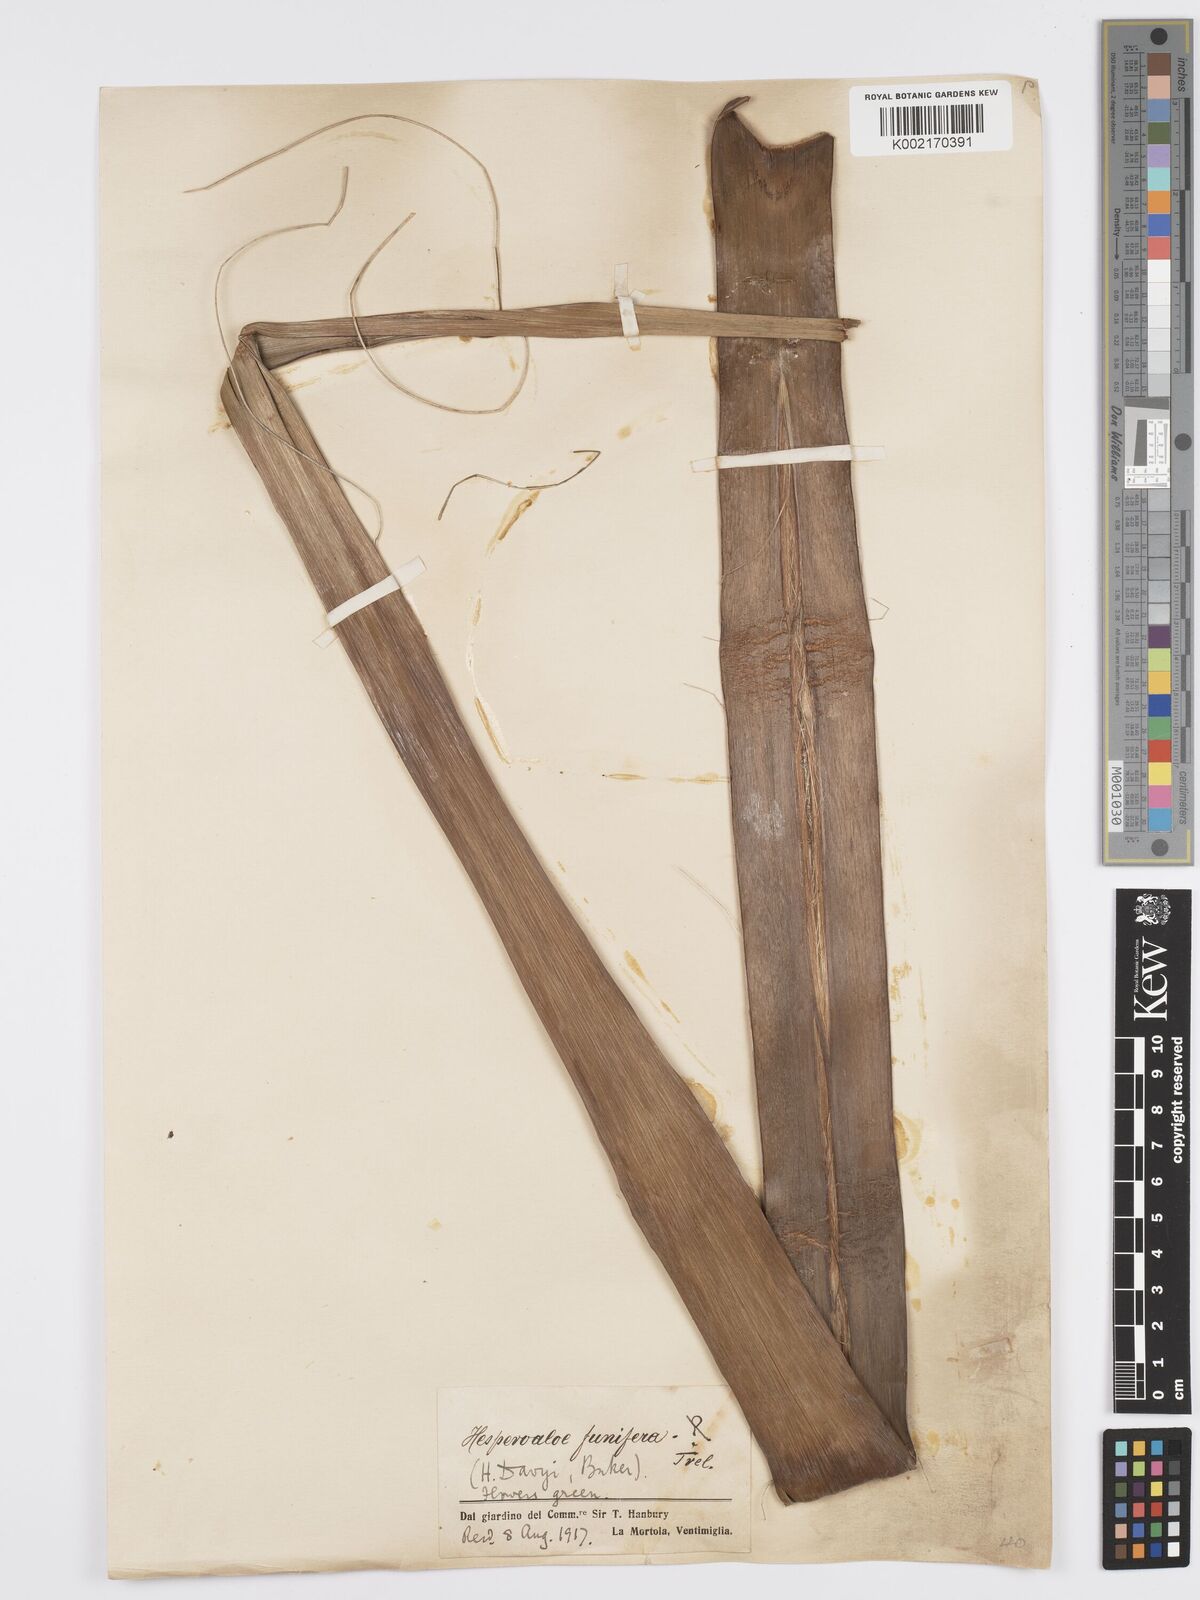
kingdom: Plantae
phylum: Tracheophyta
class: Liliopsida
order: Asparagales
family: Asparagaceae
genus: Hesperaloe
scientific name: Hesperaloe funifera
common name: Giant hesperaloe
